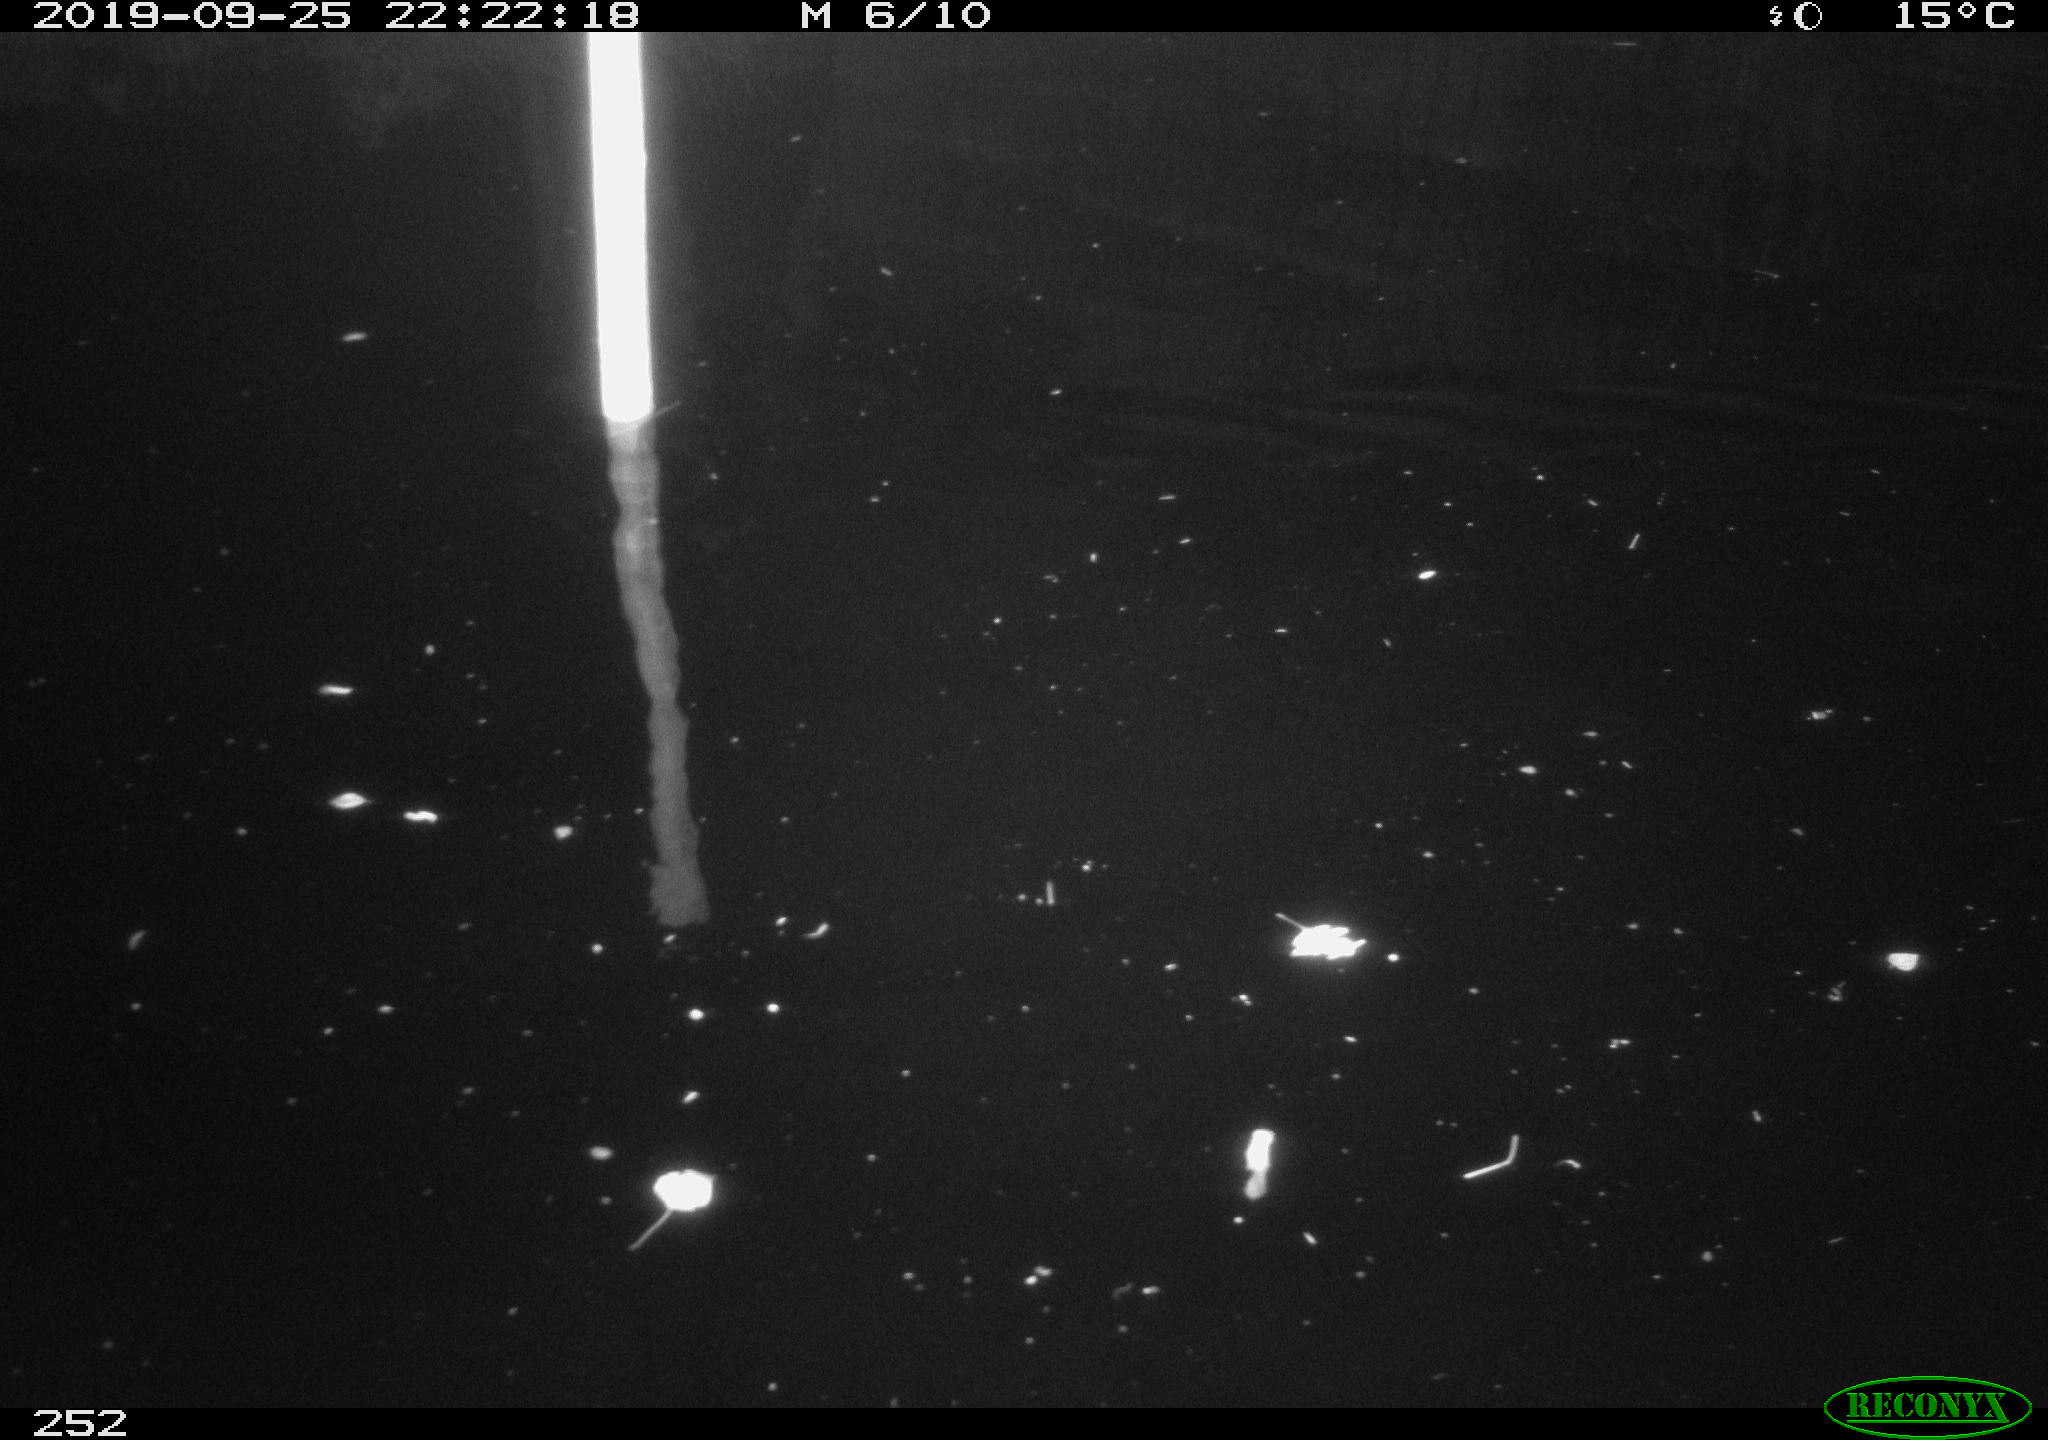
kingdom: Animalia
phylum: Chordata
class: Aves
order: Anseriformes
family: Anatidae
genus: Anas
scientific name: Anas platyrhynchos
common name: Mallard
